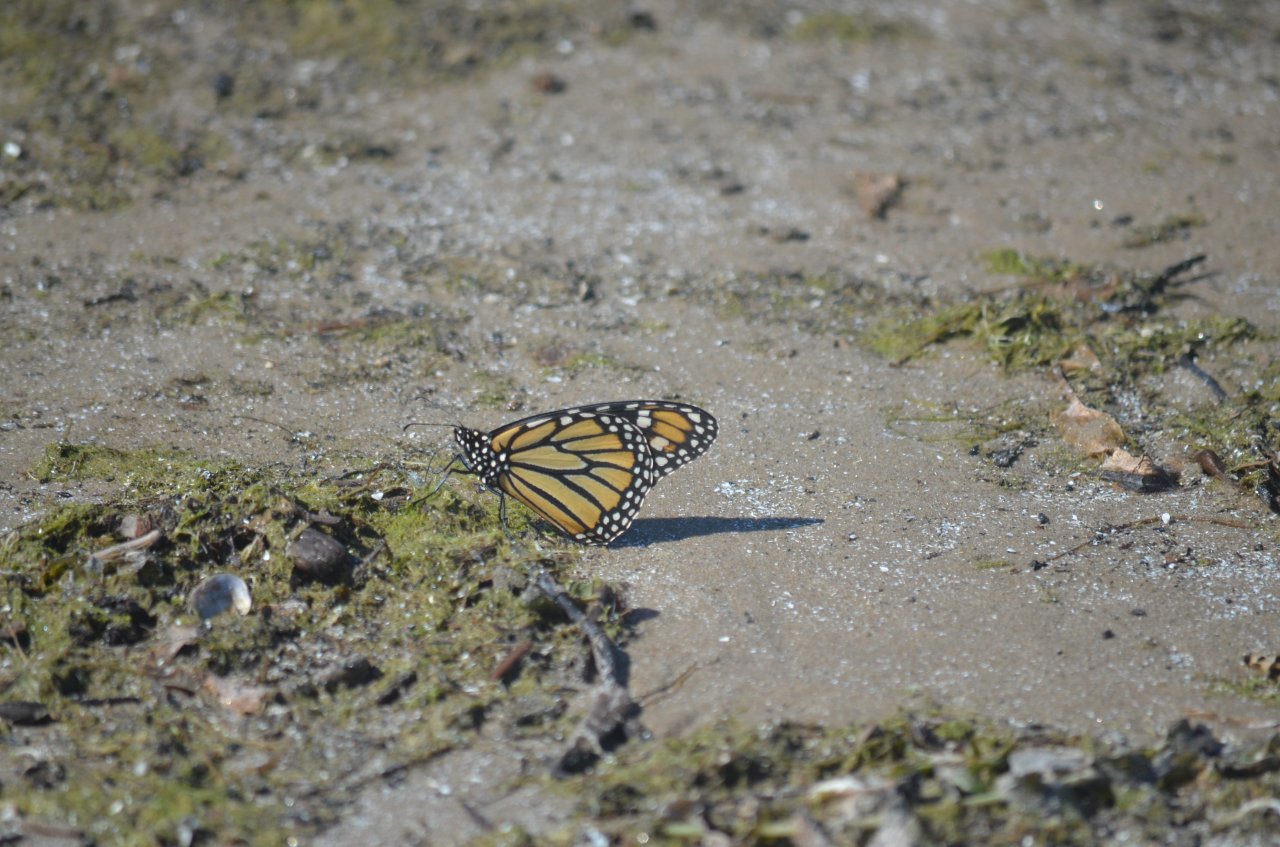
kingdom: Animalia
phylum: Arthropoda
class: Insecta
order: Lepidoptera
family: Nymphalidae
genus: Danaus
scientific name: Danaus plexippus
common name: Monarch
